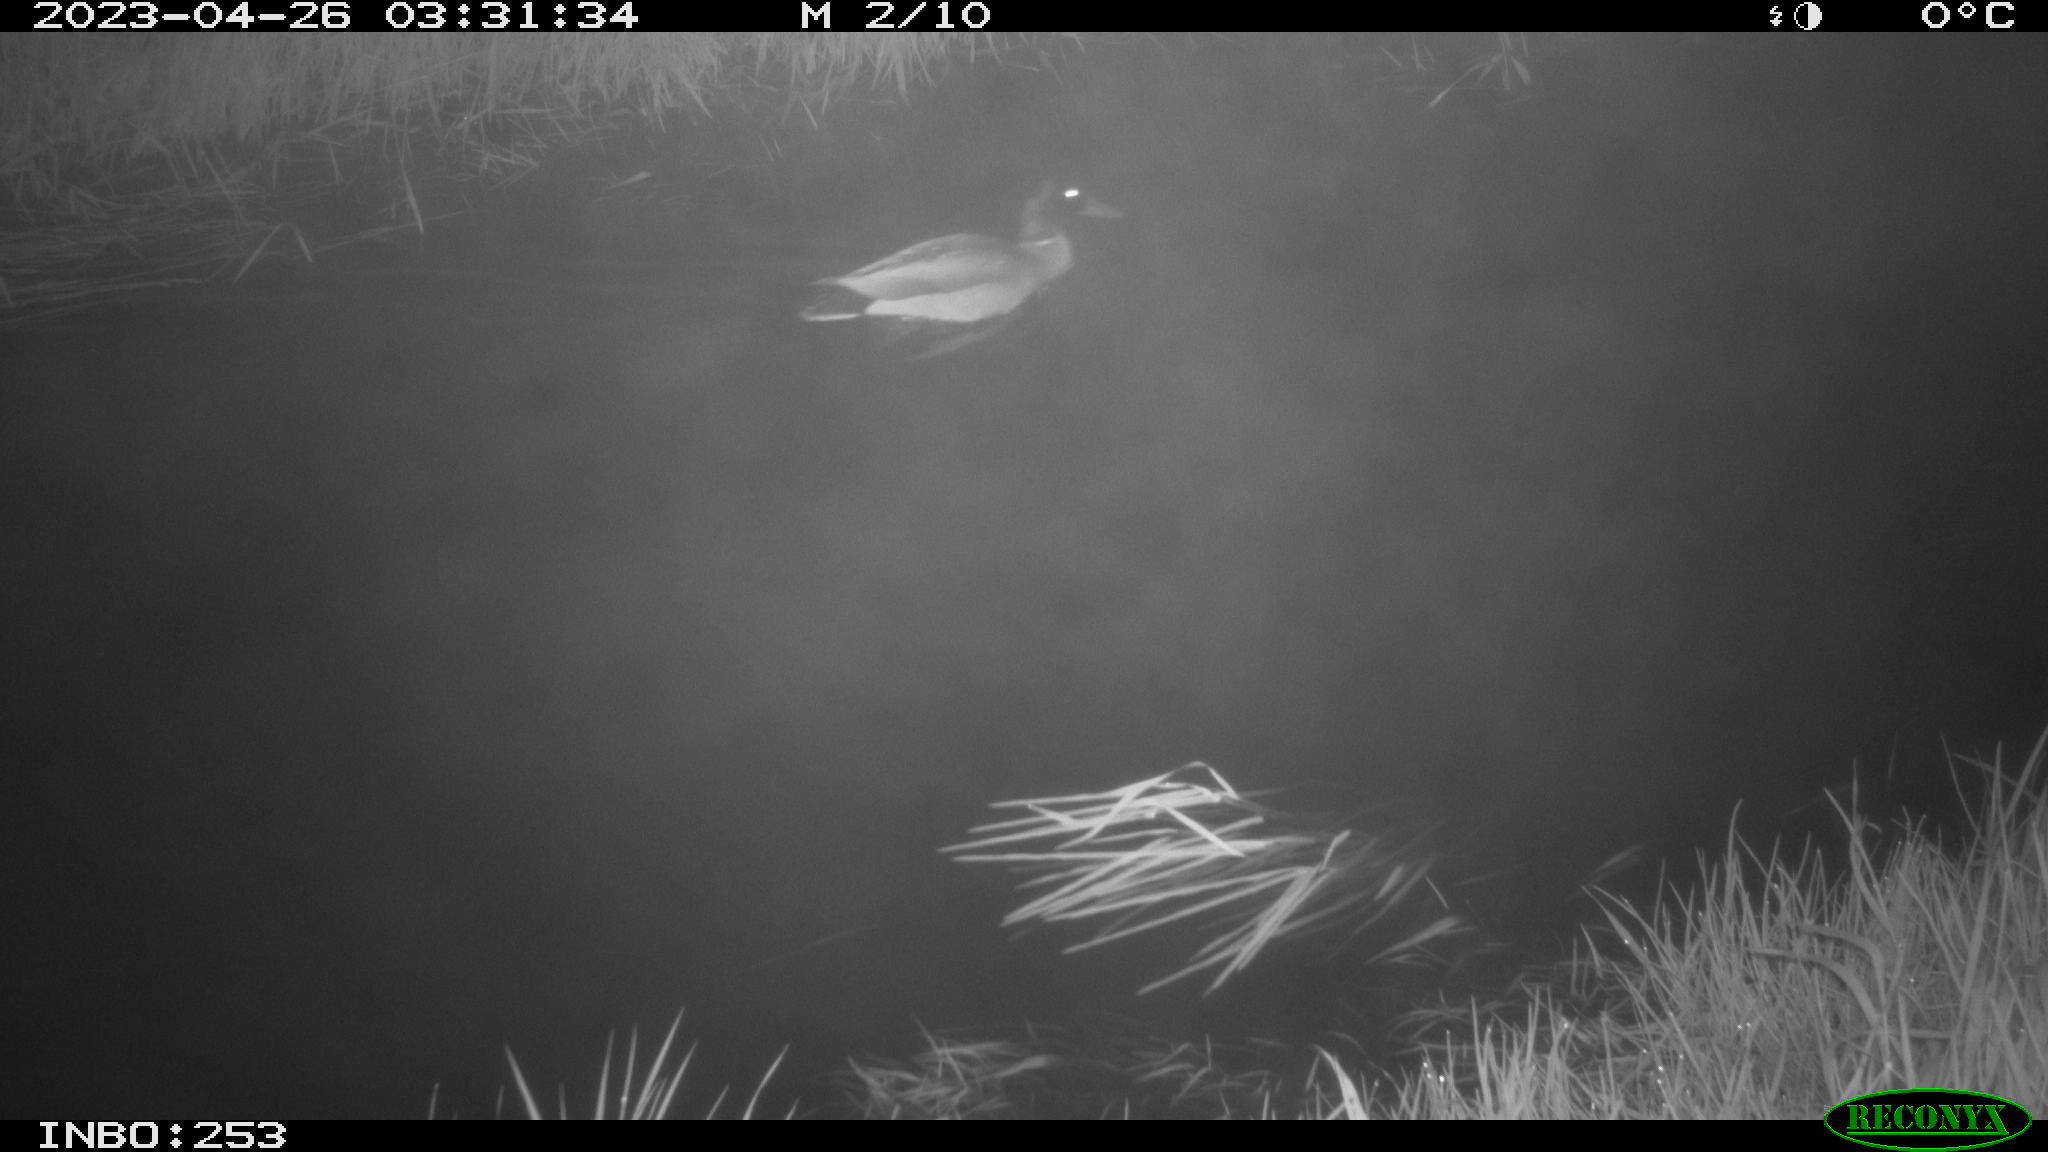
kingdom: Animalia
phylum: Chordata
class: Aves
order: Anseriformes
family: Anatidae
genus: Anas
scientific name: Anas
